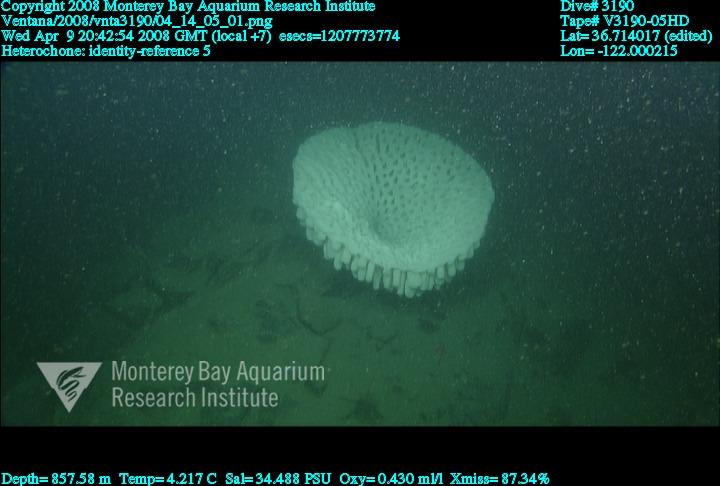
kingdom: Animalia
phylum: Porifera
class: Hexactinellida
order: Sceptrulophora
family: Aphrocallistidae
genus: Heterochone
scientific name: Heterochone
